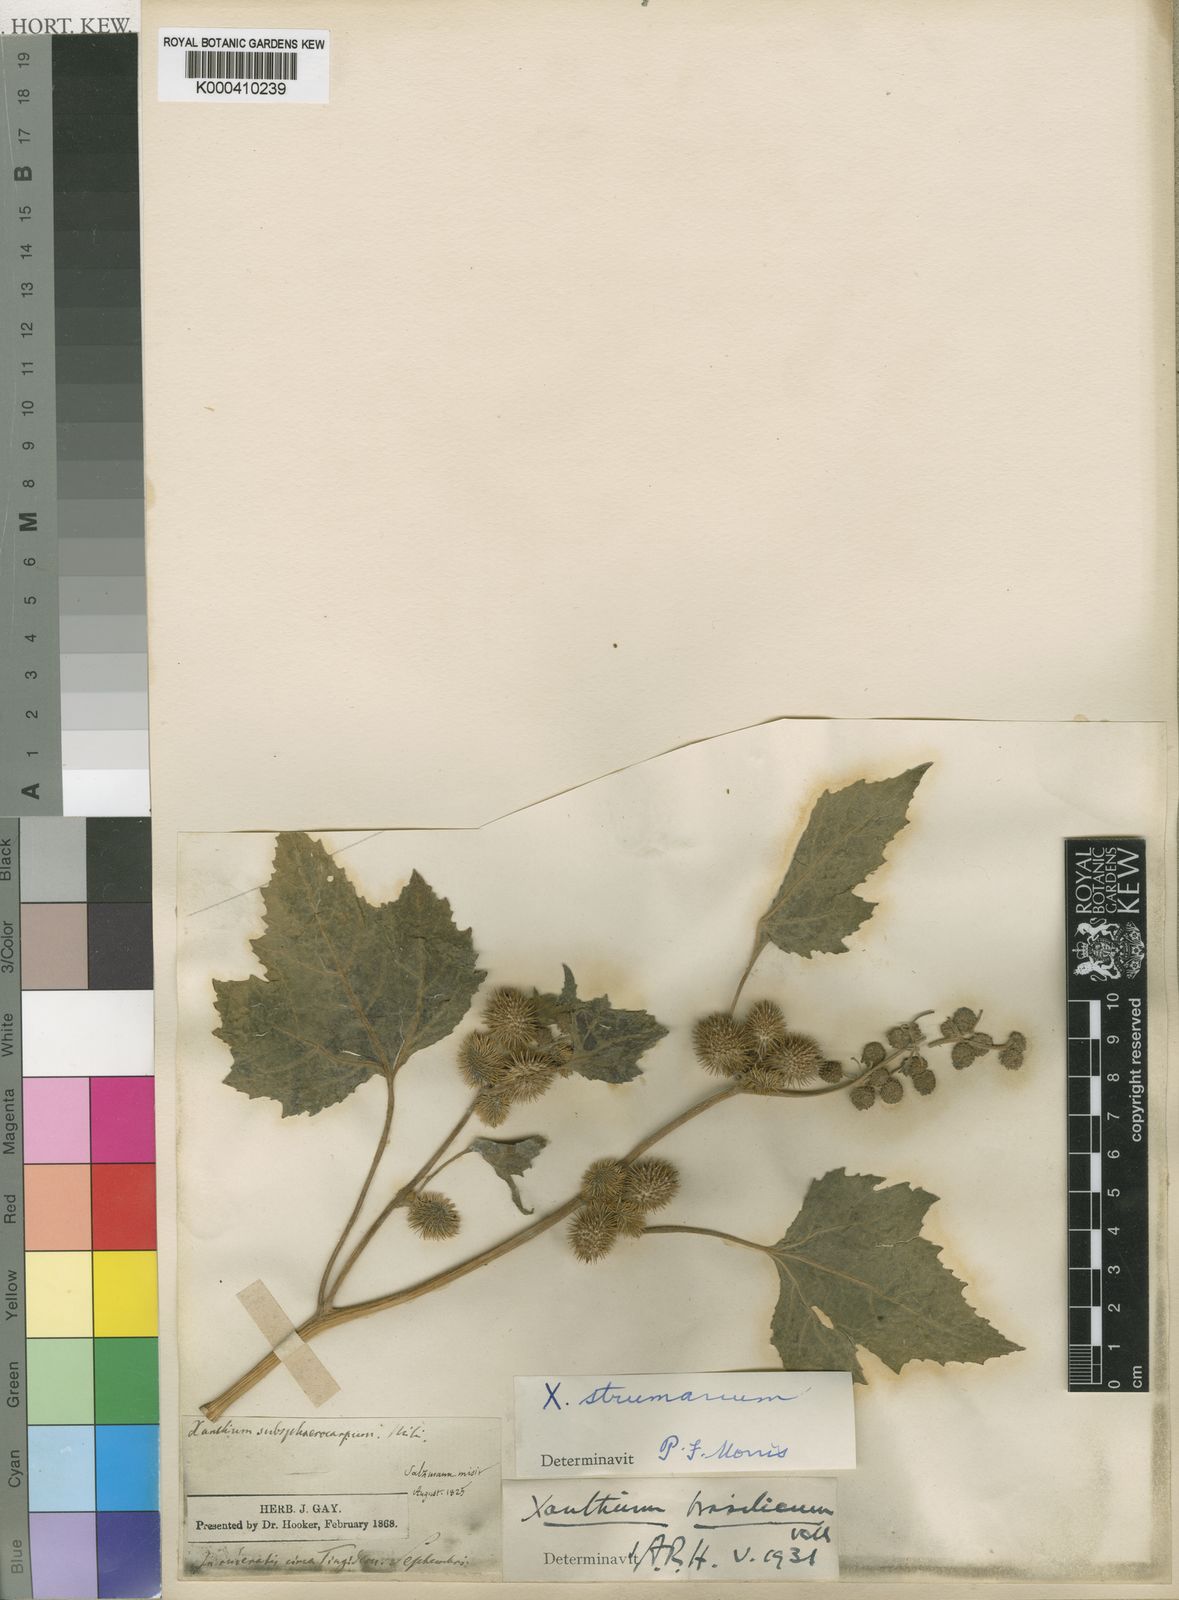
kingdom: Plantae
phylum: Tracheophyta
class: Magnoliopsida
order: Asterales
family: Asteraceae
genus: Xanthium
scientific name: Xanthium strumarium
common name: Rough cocklebur
